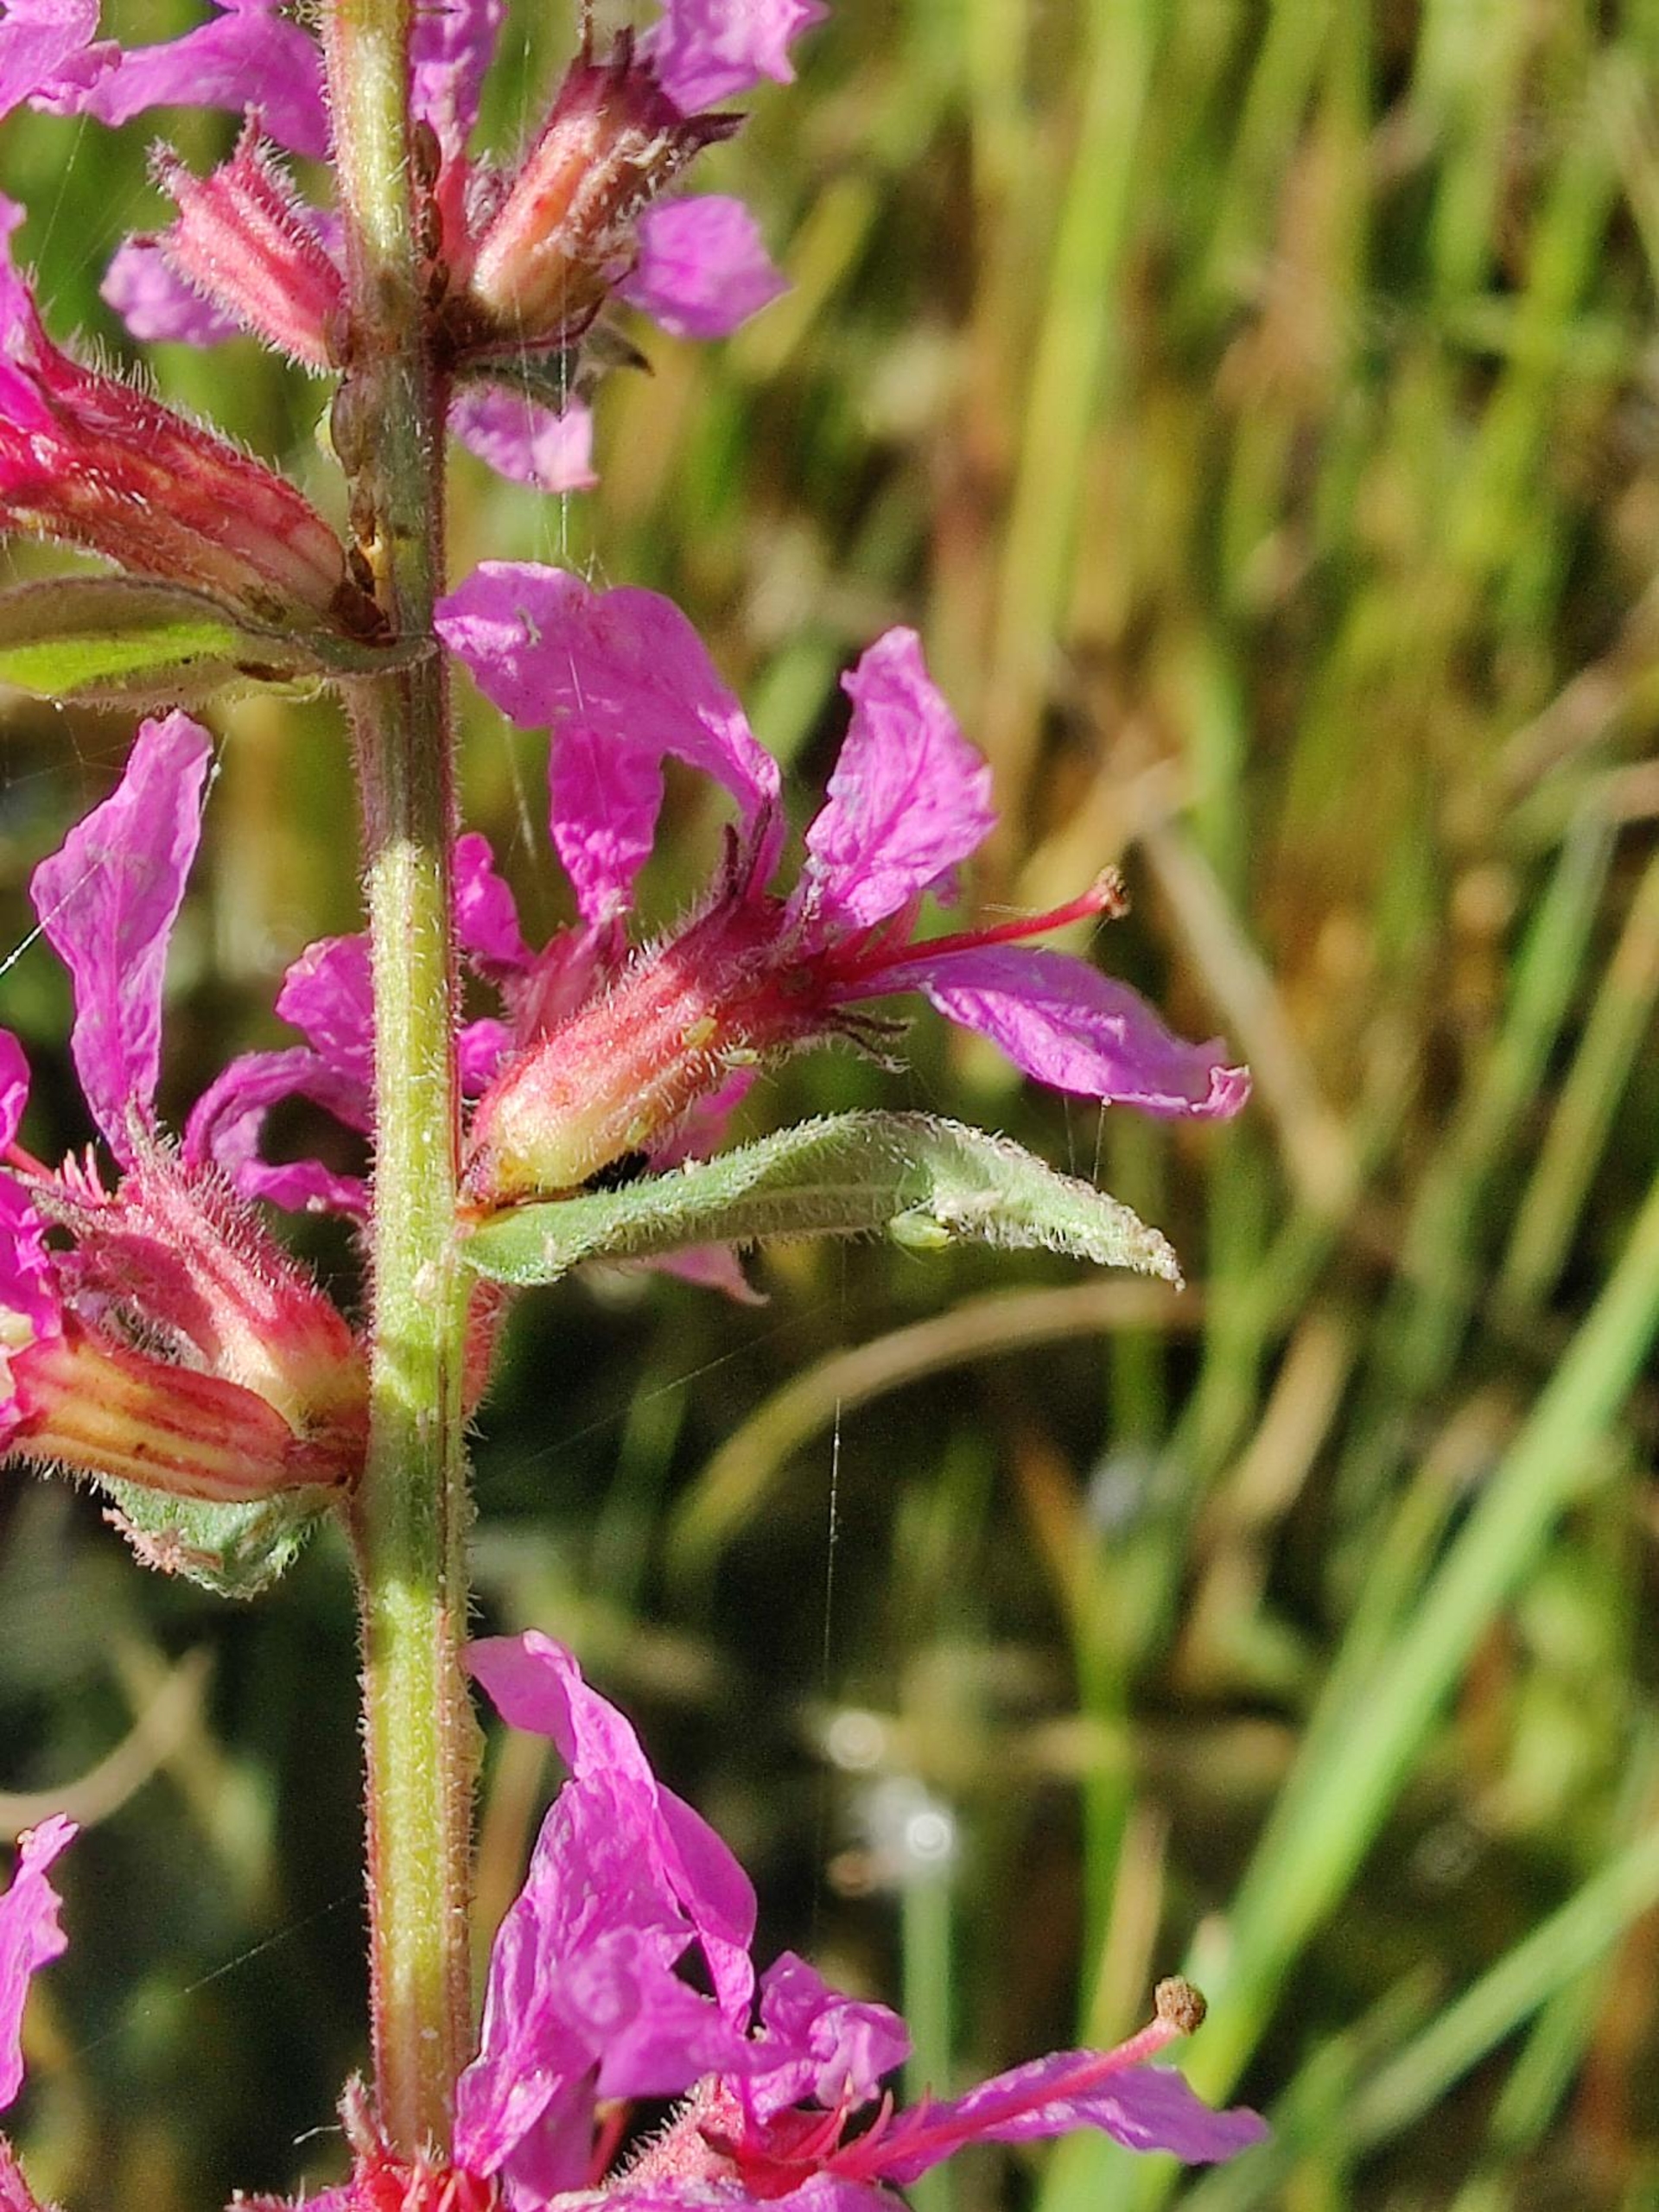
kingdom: Plantae
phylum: Tracheophyta
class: Magnoliopsida
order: Myrtales
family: Lythraceae
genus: Lythrum
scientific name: Lythrum salicaria
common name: Kattehale
